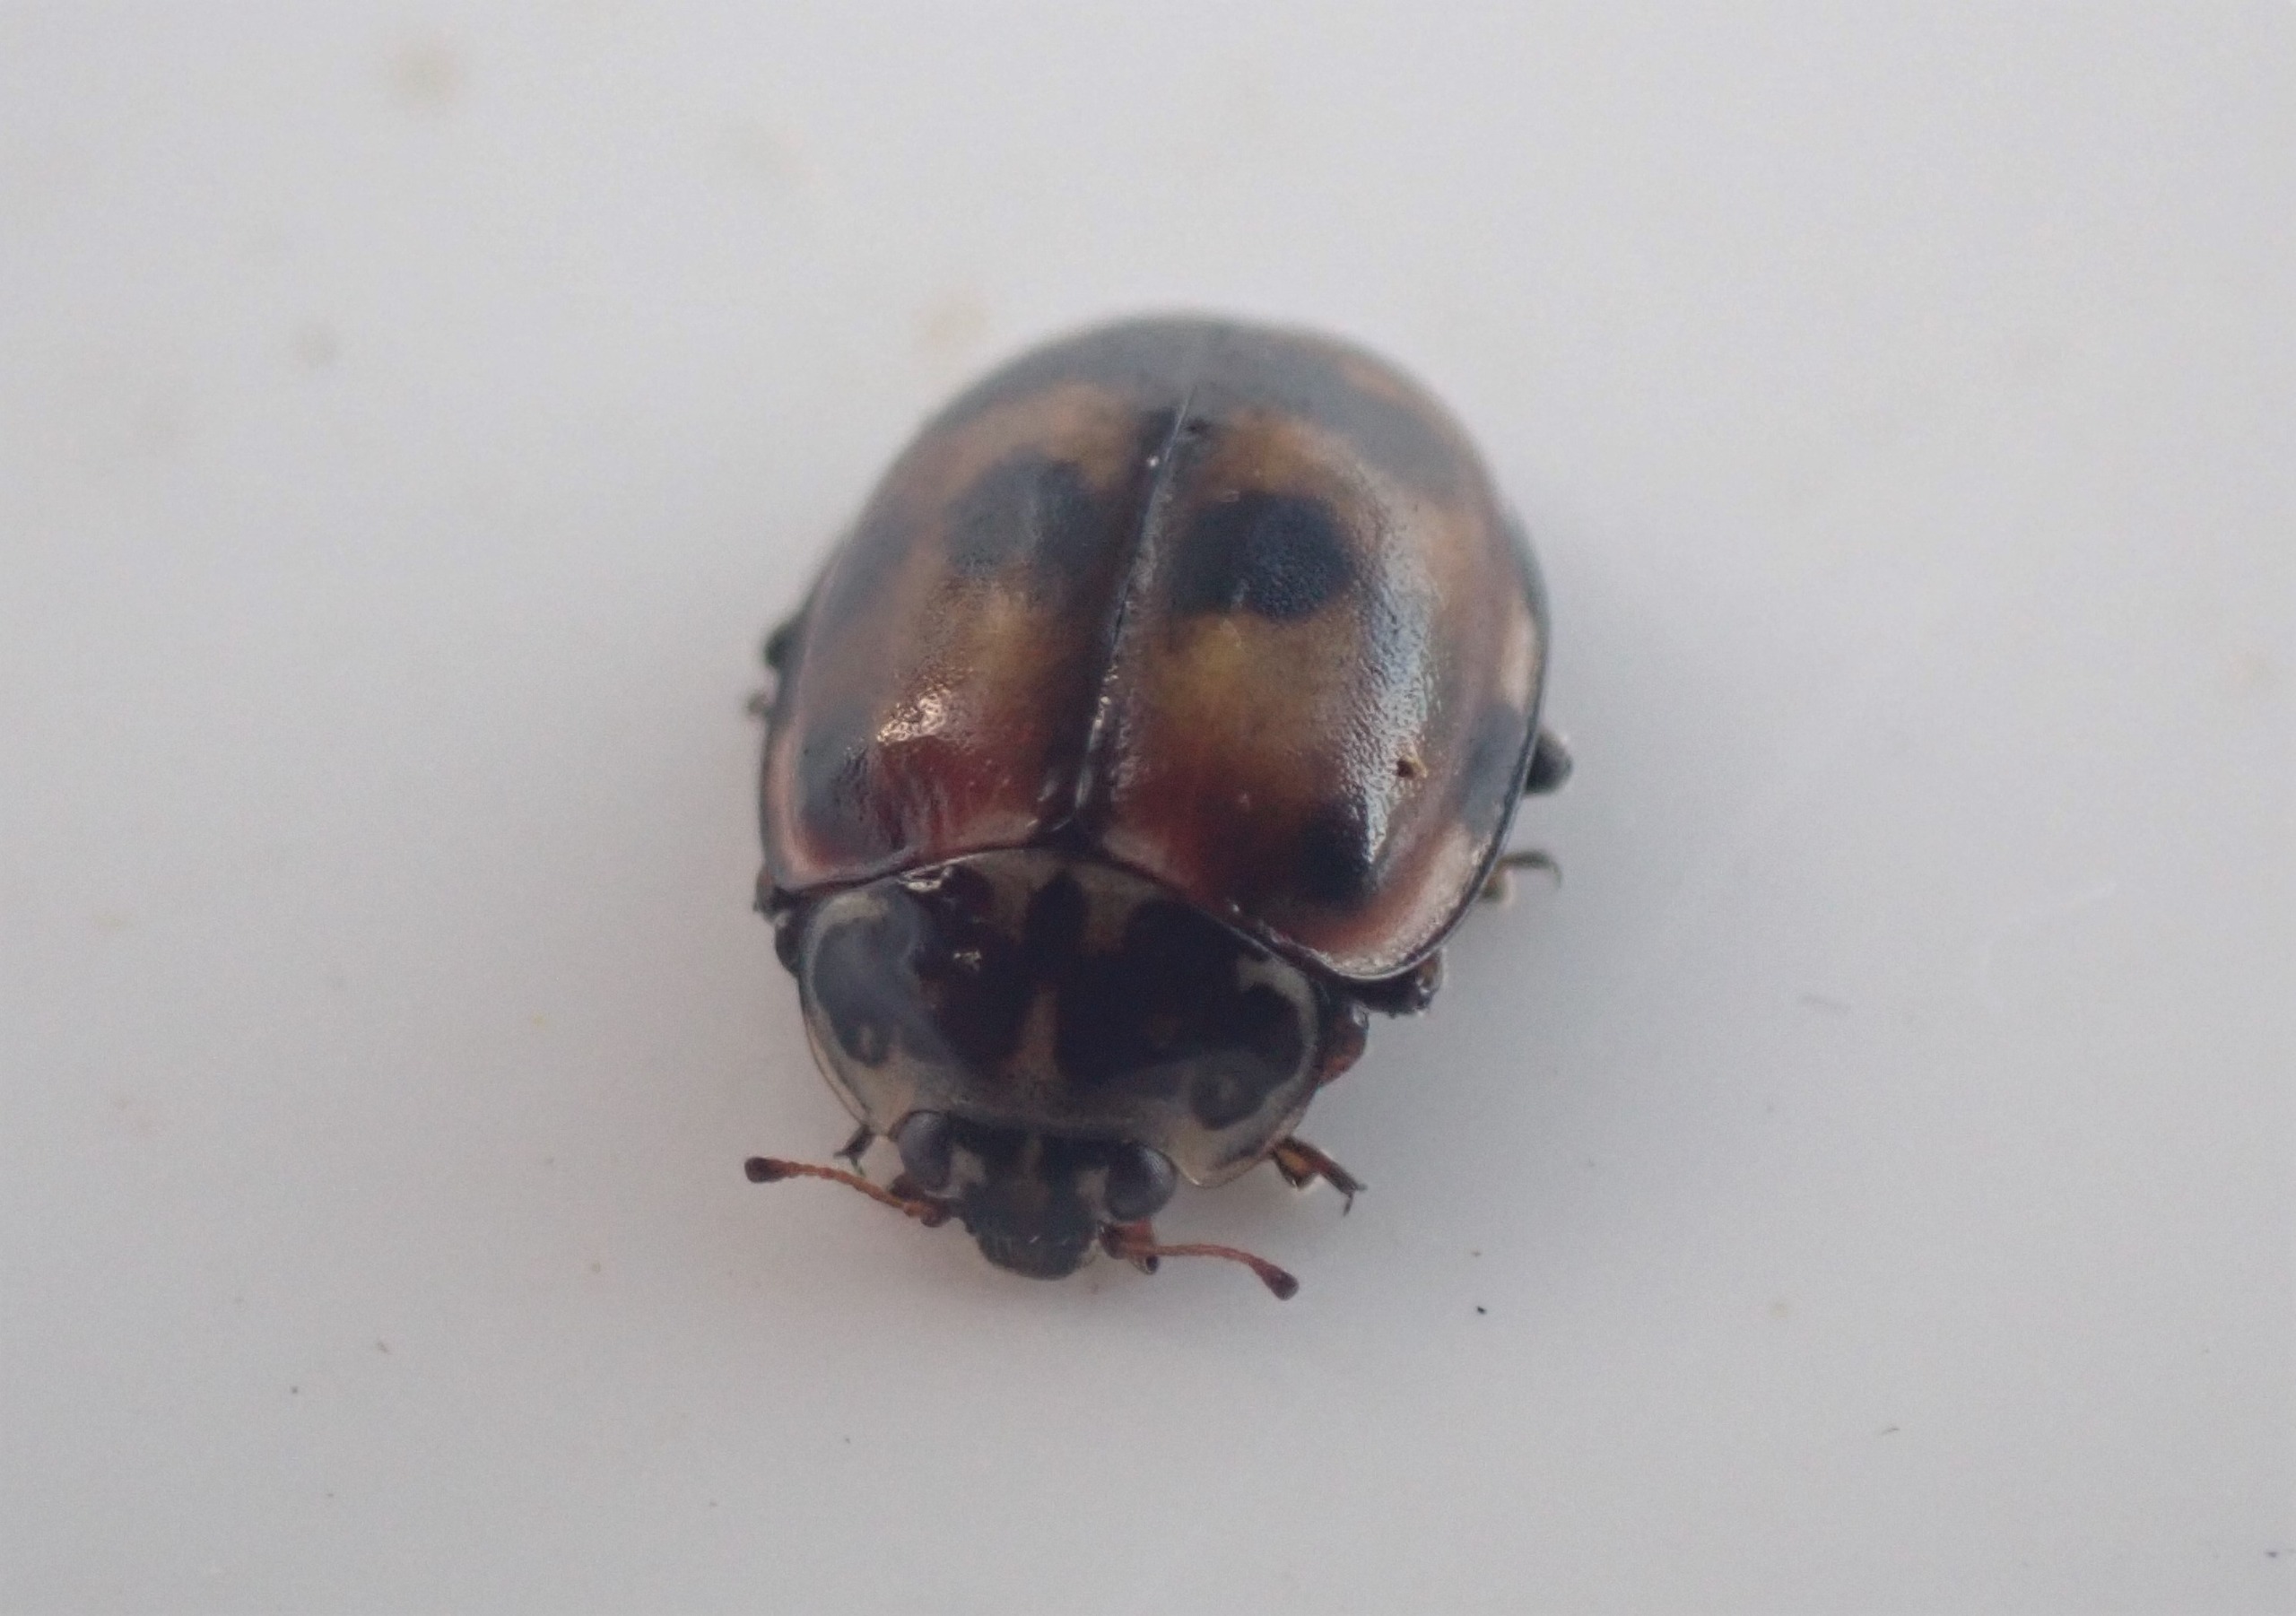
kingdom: Animalia
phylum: Arthropoda
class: Insecta
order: Coleoptera
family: Coccinellidae
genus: Harmonia
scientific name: Harmonia quadripunctata
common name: Gulrød mariehøne
